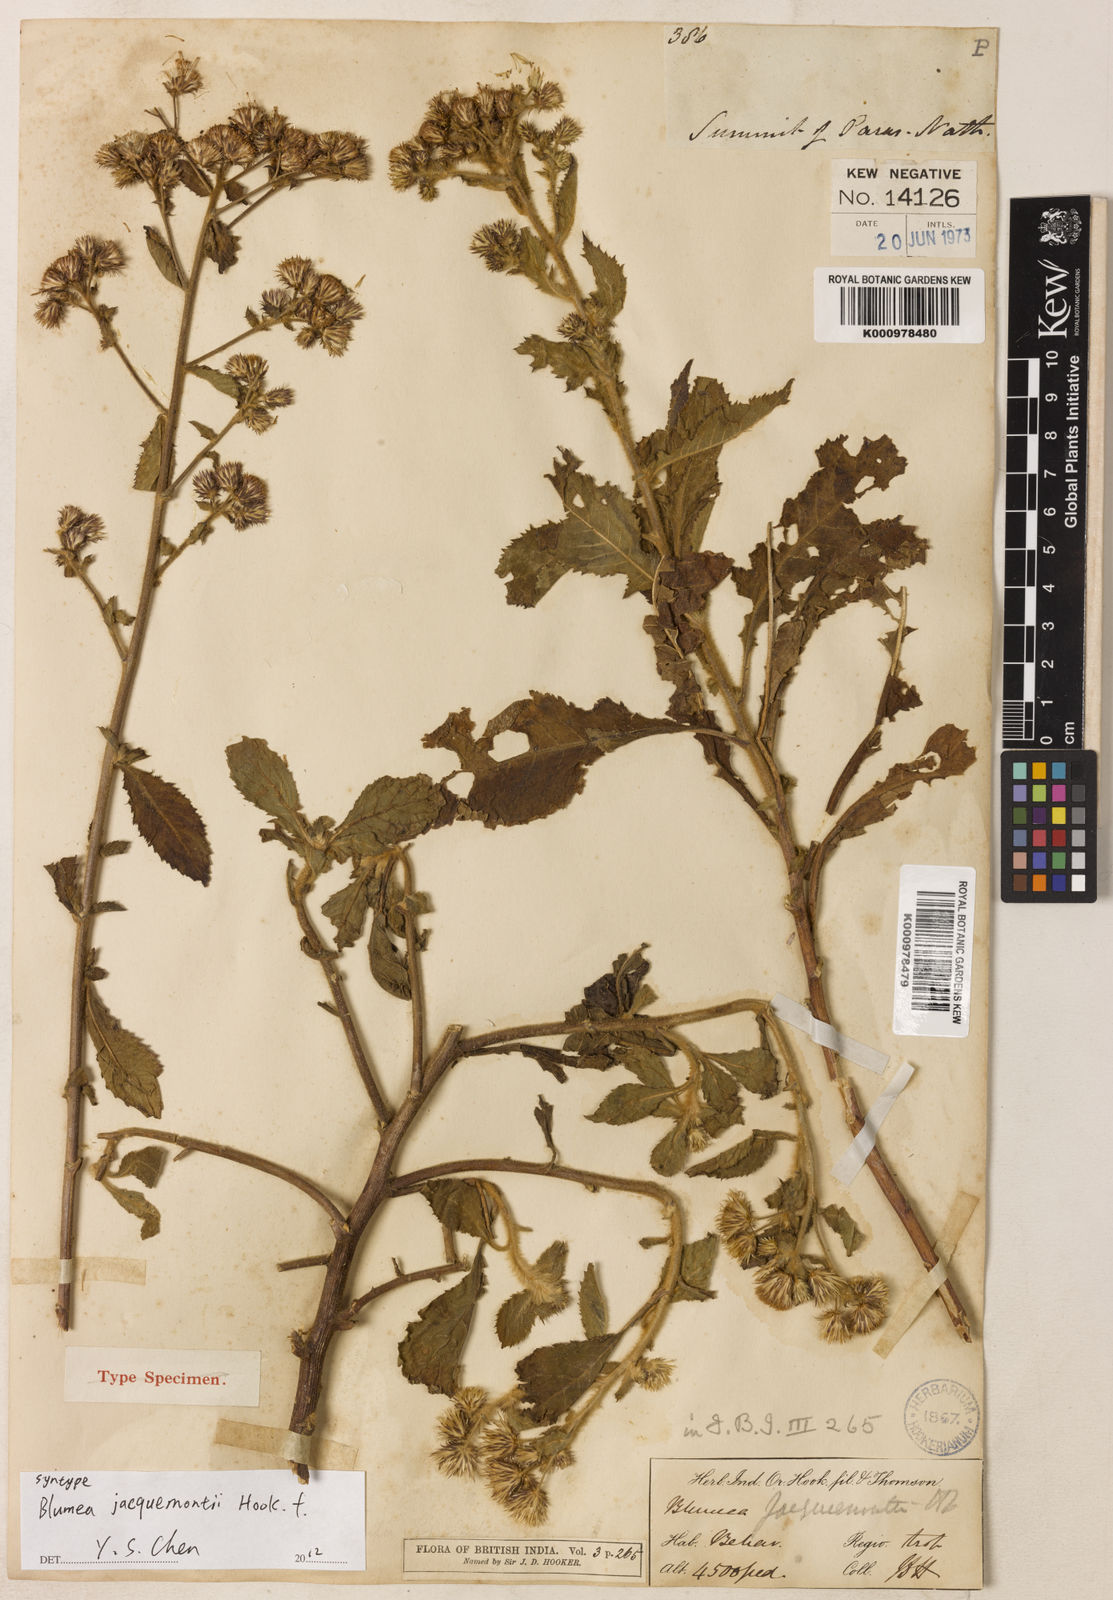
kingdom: Plantae
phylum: Tracheophyta
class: Magnoliopsida
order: Asterales
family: Asteraceae
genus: Blumea
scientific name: Blumea
